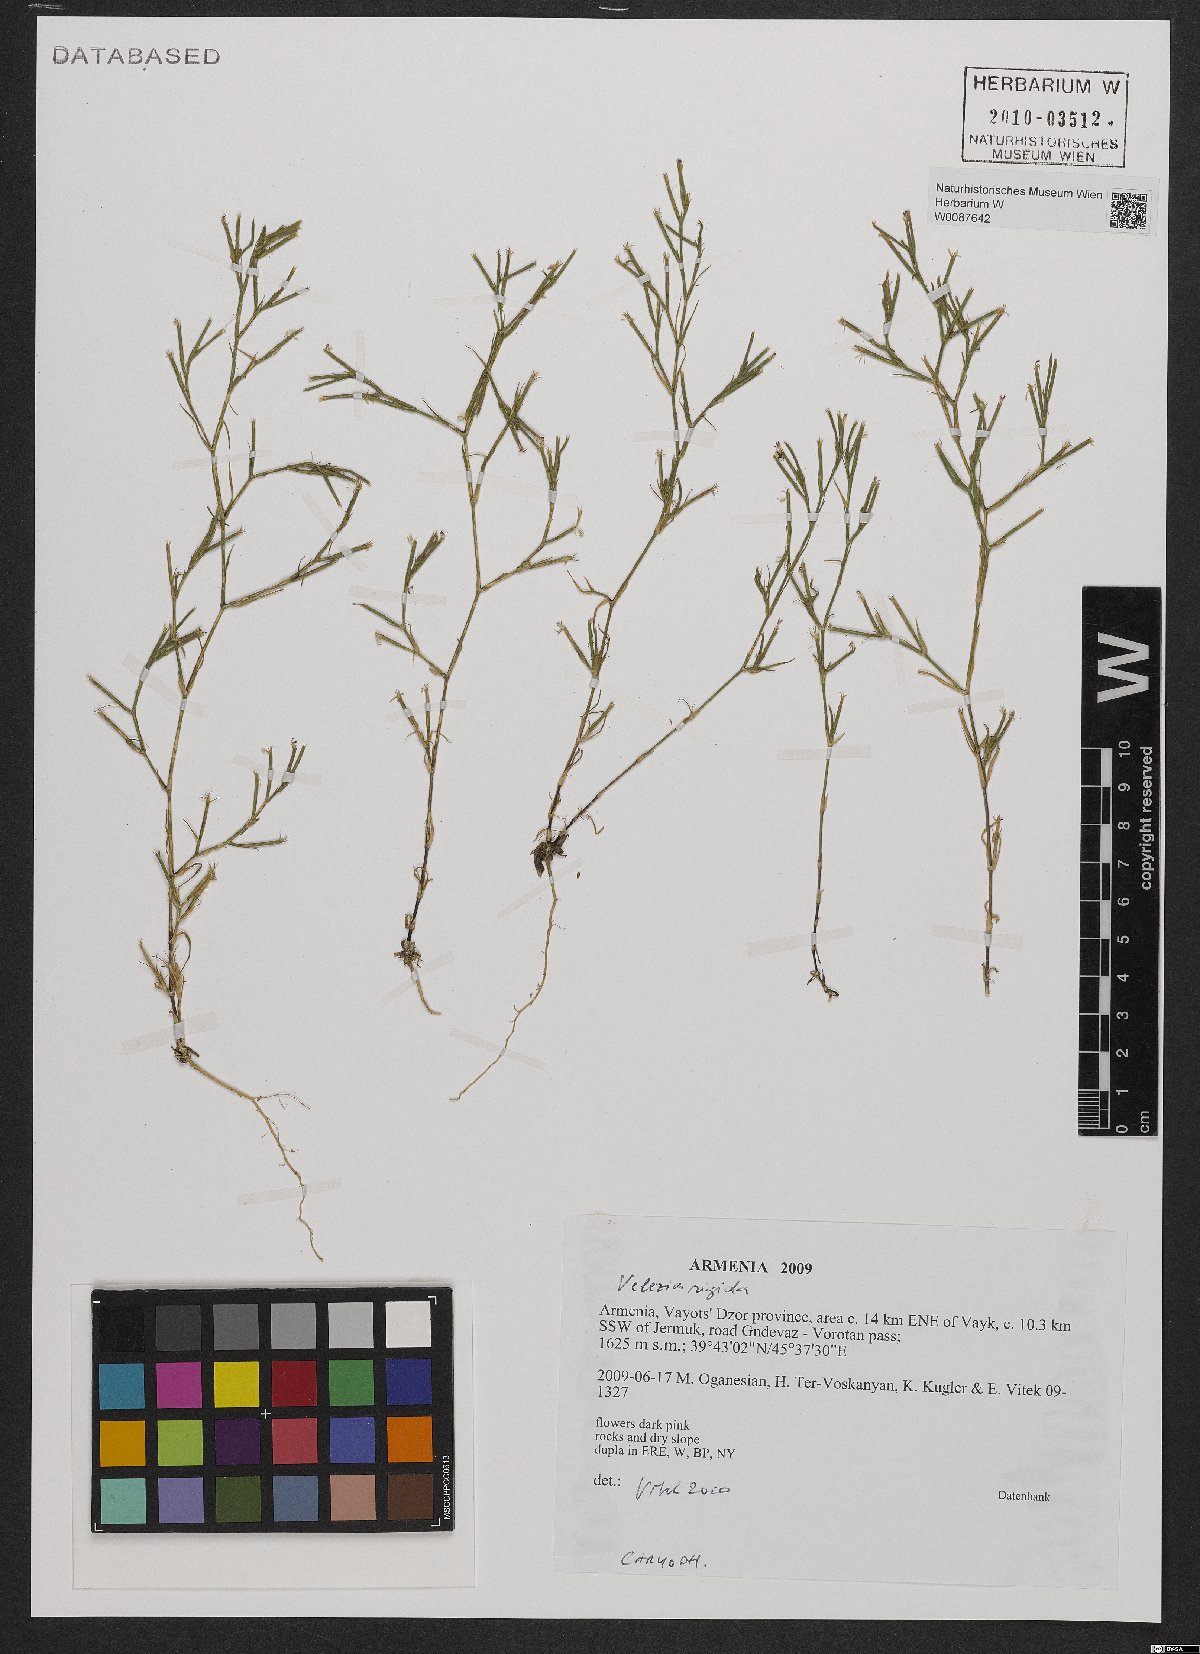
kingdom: Plantae
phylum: Tracheophyta
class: Magnoliopsida
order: Caryophyllales
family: Caryophyllaceae
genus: Dianthus
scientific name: Dianthus nudiflorus
